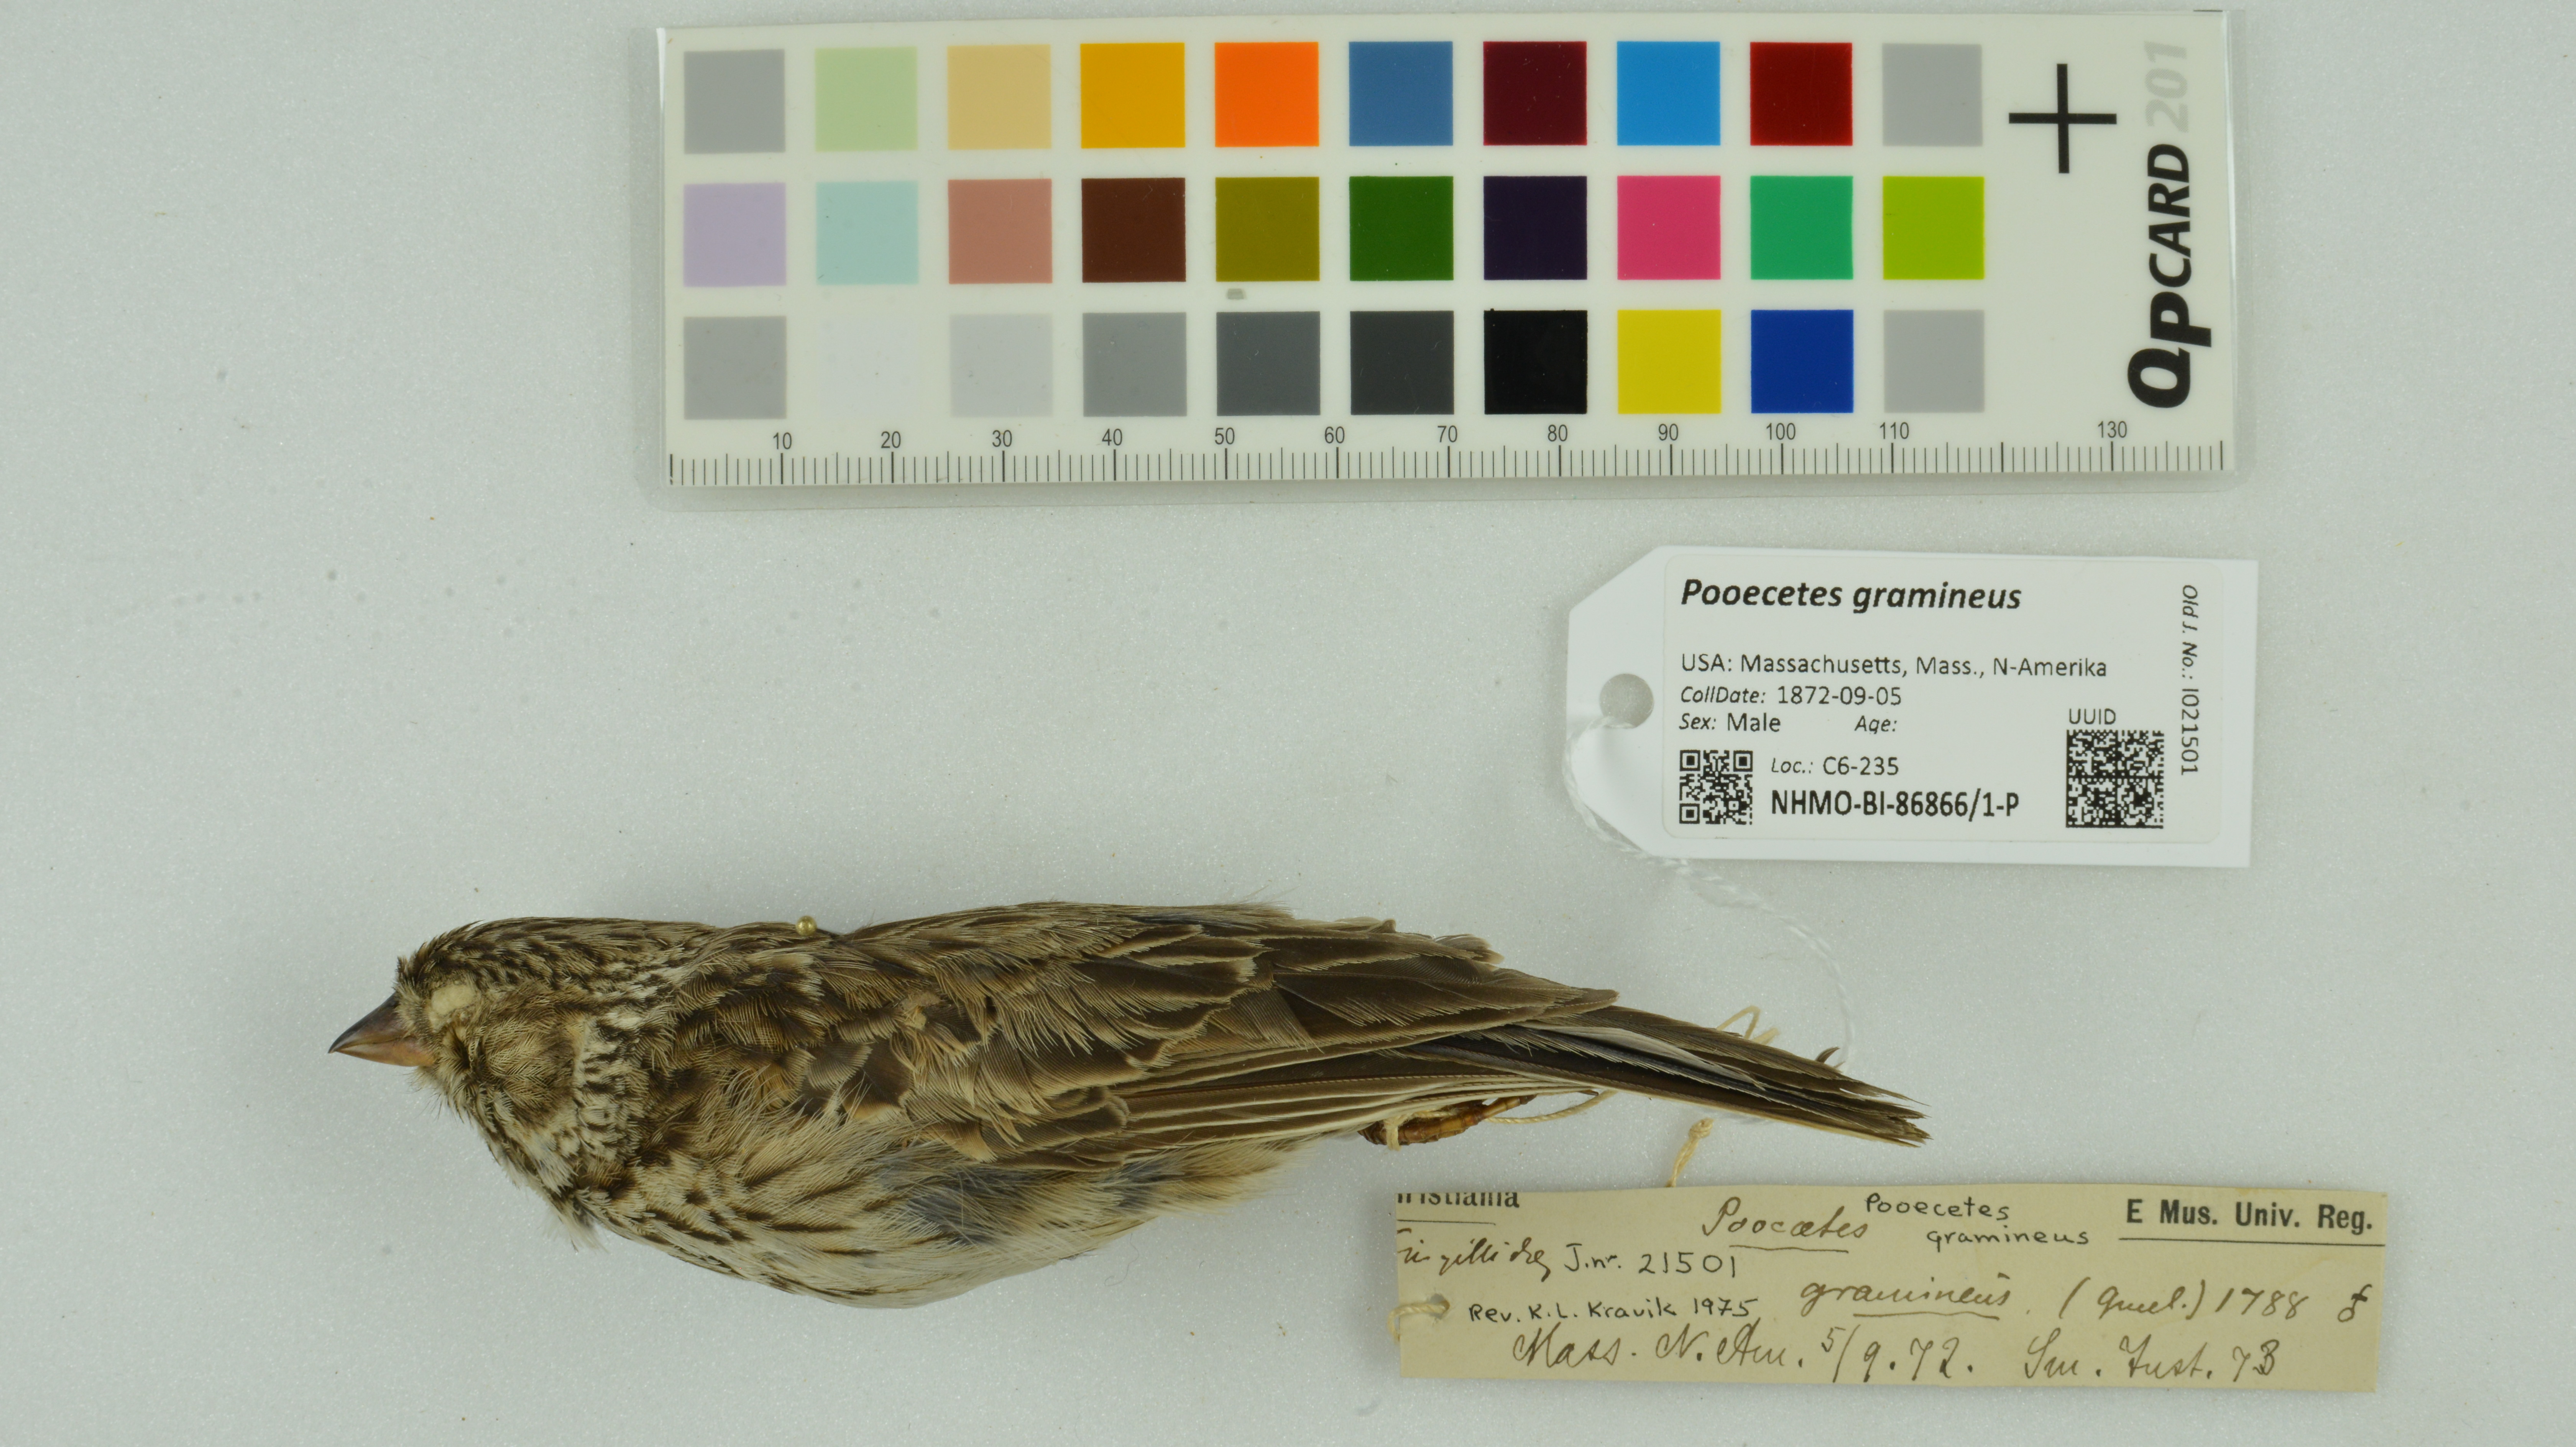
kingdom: Animalia
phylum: Chordata
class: Aves
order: Passeriformes
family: Passerellidae
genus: Pooecetes
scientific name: Pooecetes gramineus
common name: Vesper sparrow
